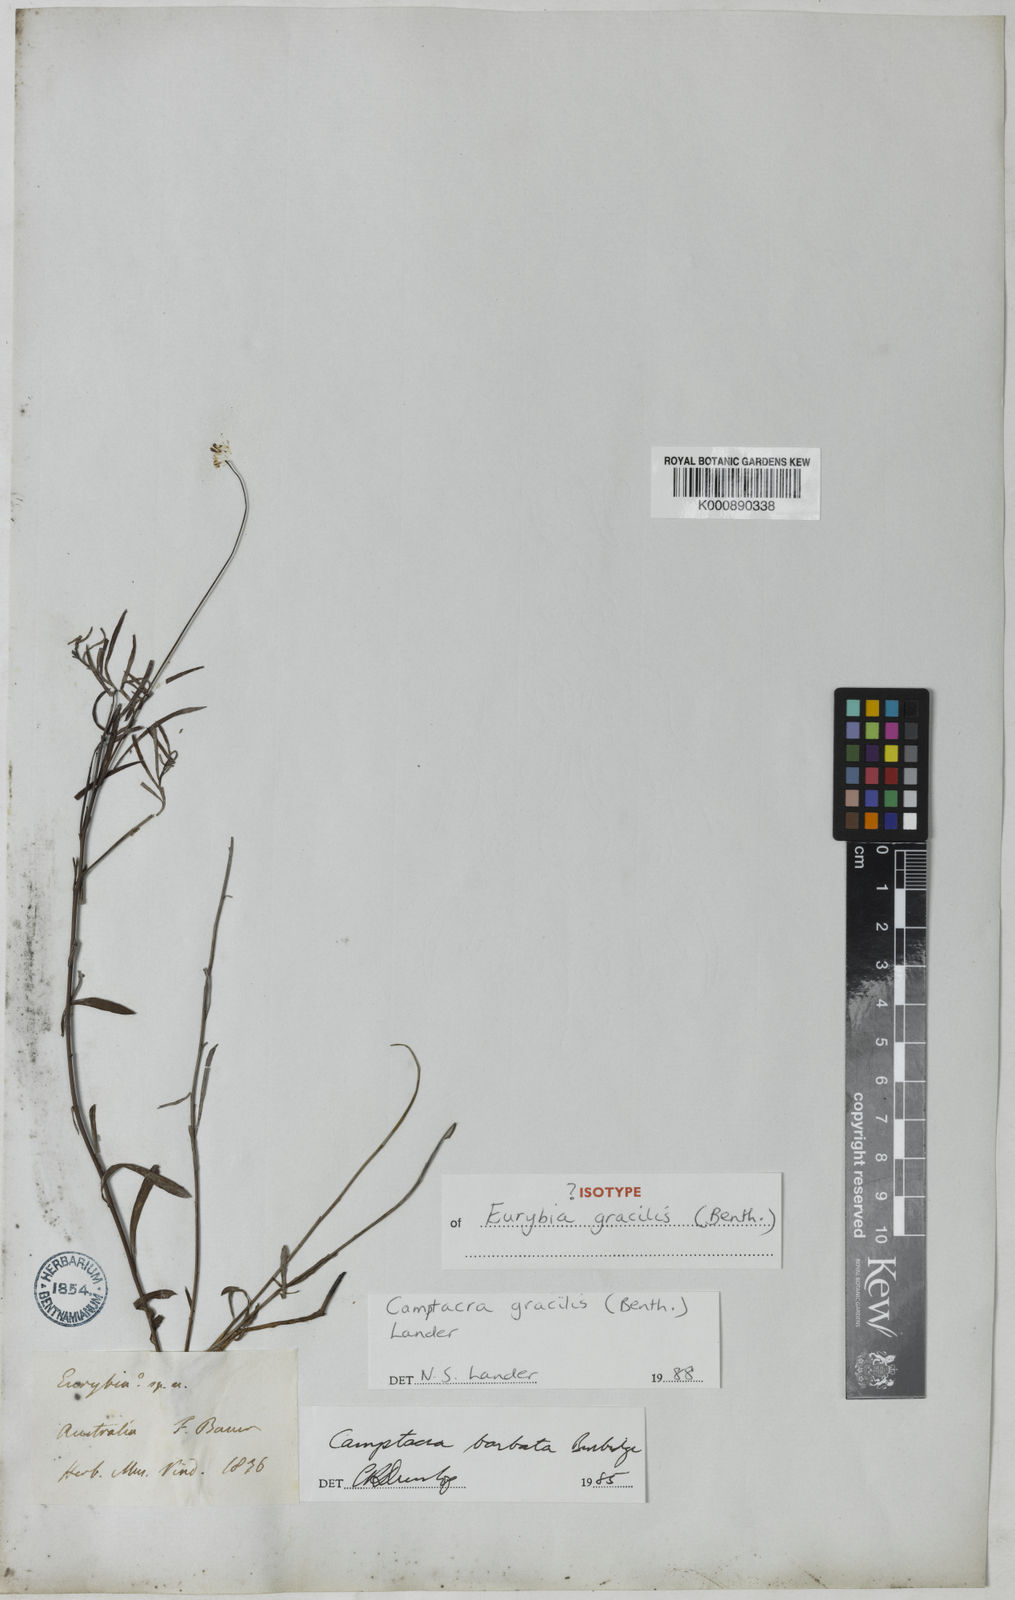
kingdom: Plantae
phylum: Tracheophyta
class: Magnoliopsida
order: Asterales
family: Asteraceae
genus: Camptacra
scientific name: Camptacra gracilis
